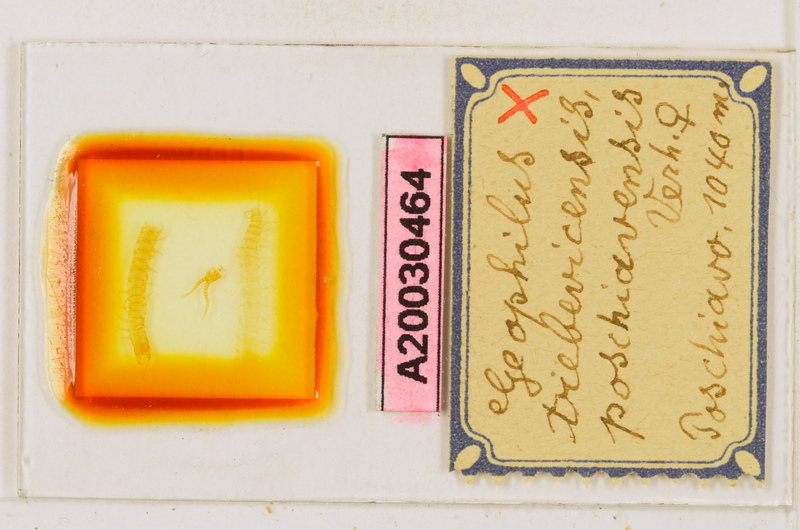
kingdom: Animalia
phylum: Arthropoda
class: Chilopoda
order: Geophilomorpha
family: Geophilidae
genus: Clinopodes
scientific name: Clinopodes trebevicensis
